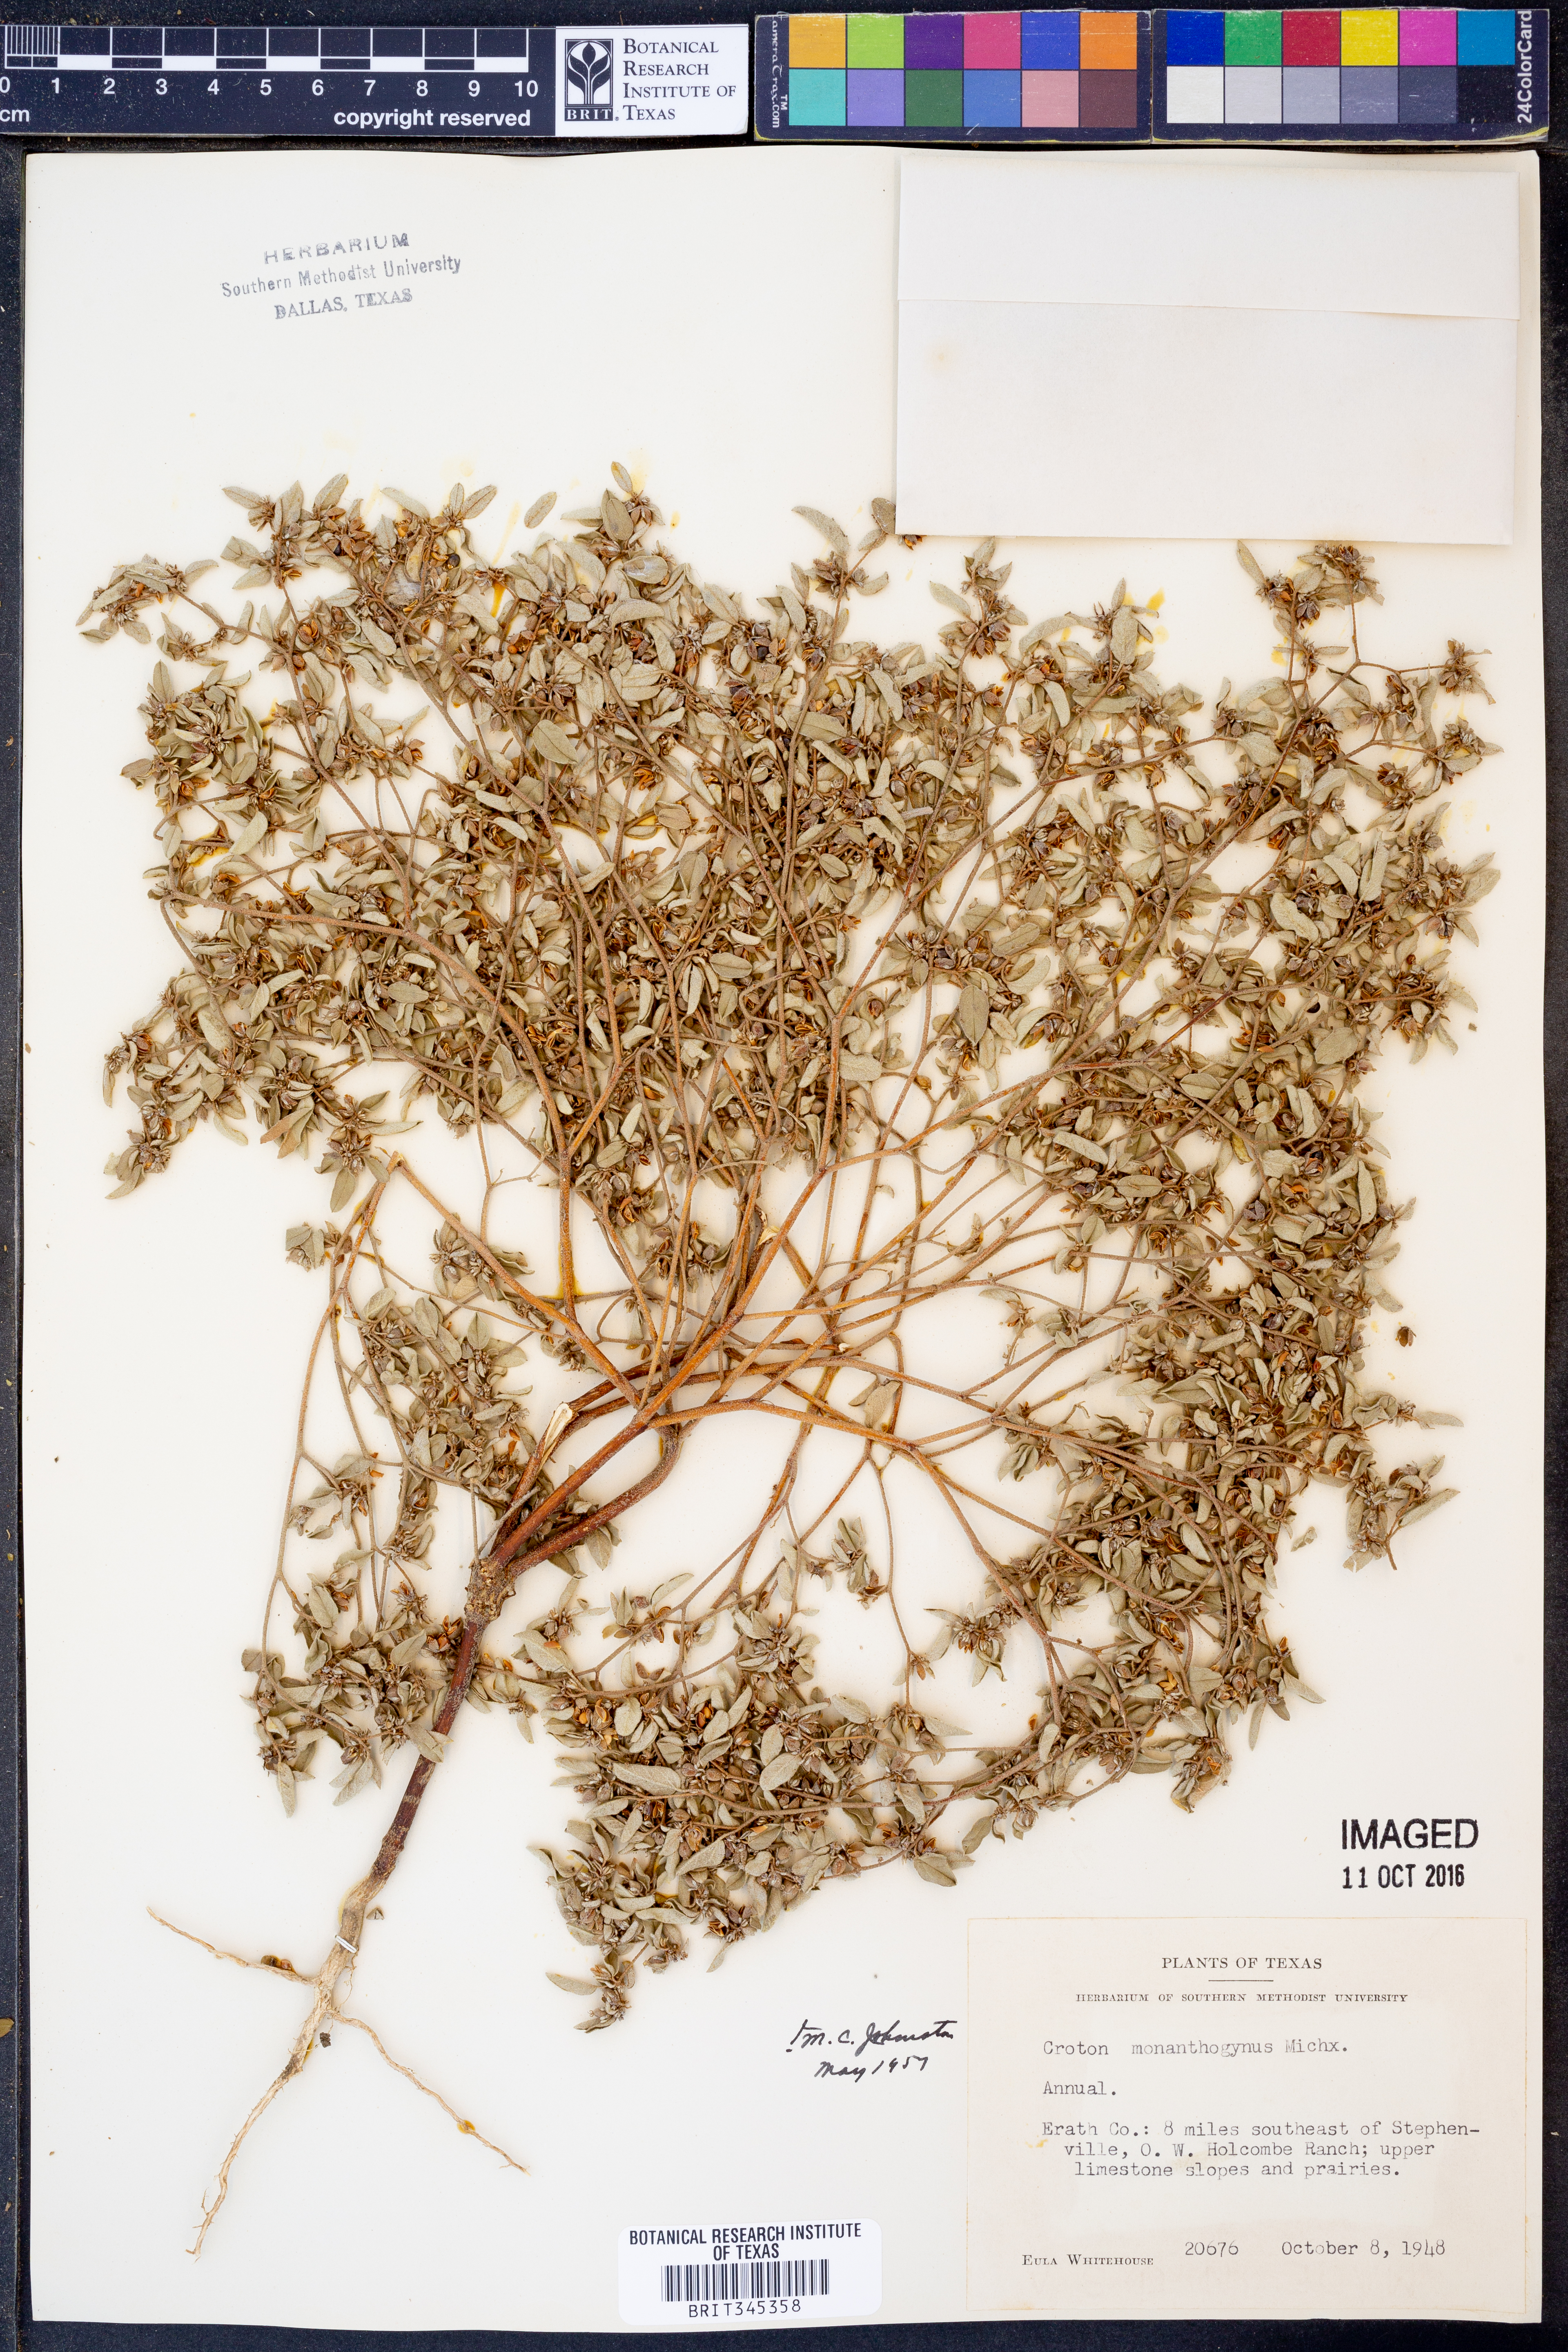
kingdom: Plantae
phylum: Tracheophyta
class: Magnoliopsida
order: Malpighiales
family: Euphorbiaceae
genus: Croton
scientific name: Croton monanthogynus
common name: One-seed croton
